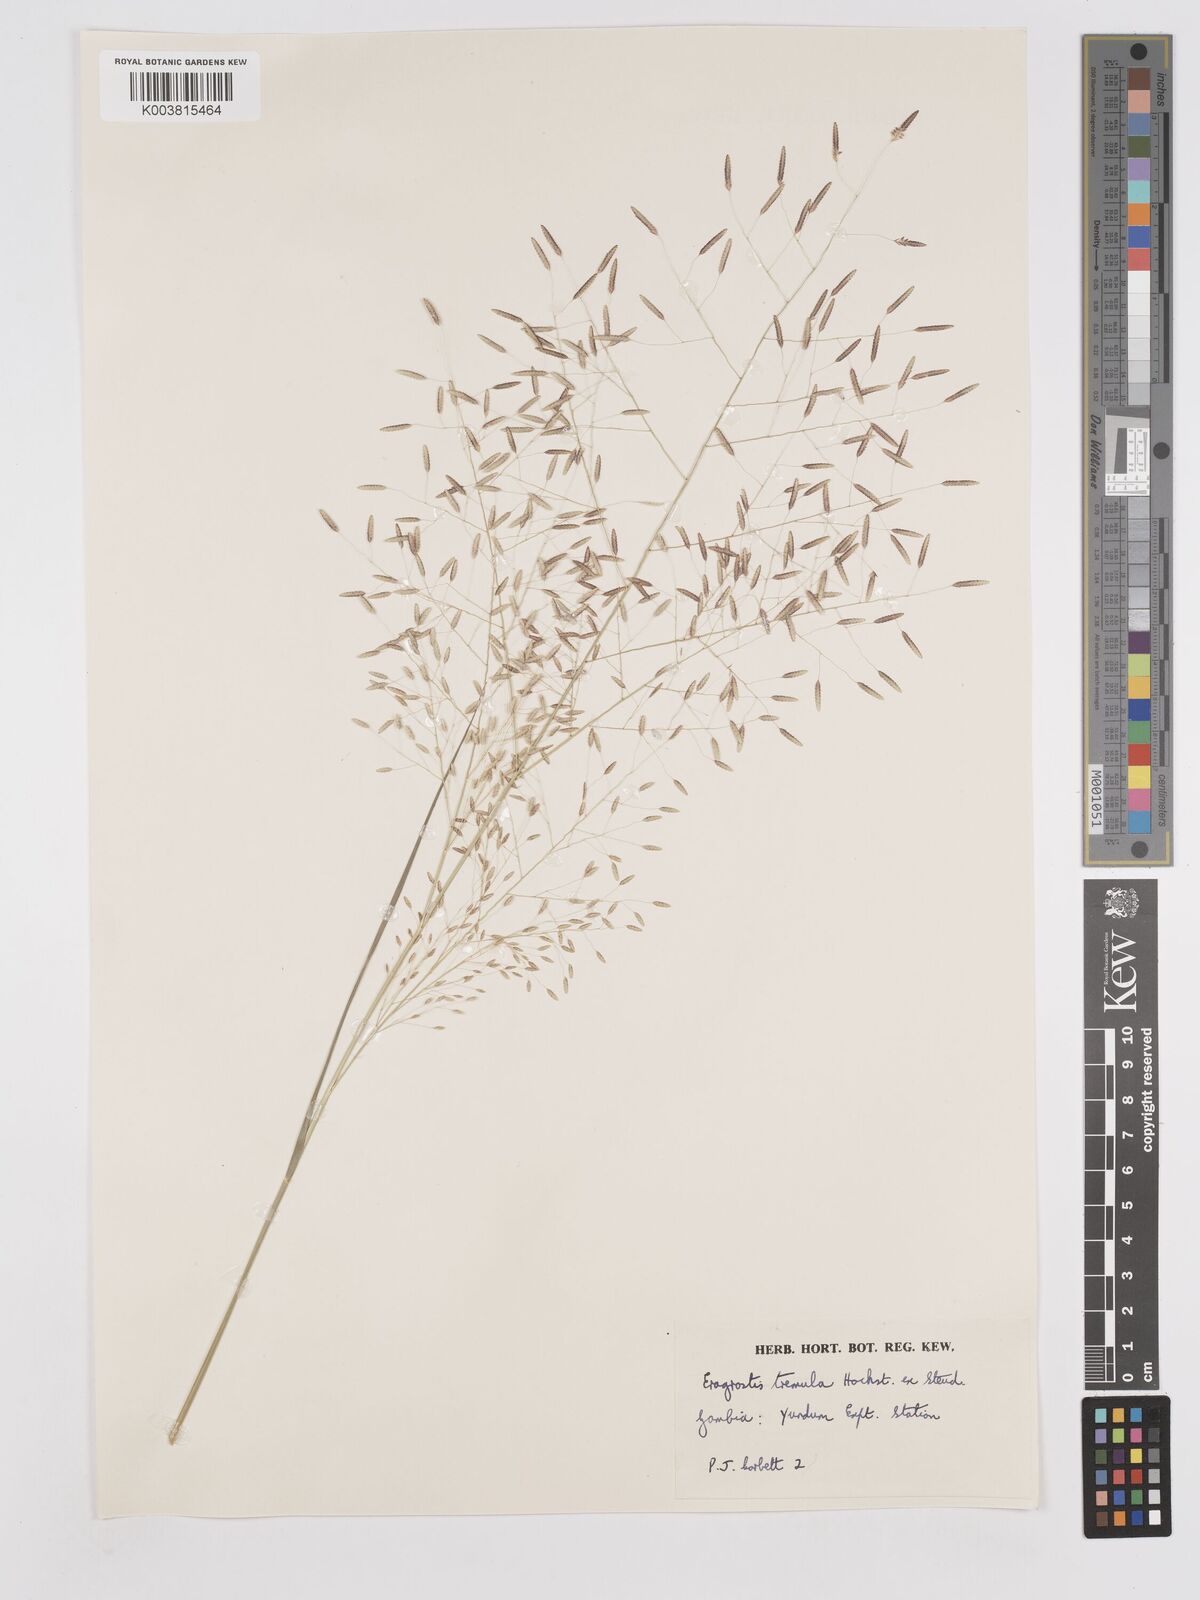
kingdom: Plantae
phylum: Tracheophyta
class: Liliopsida
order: Poales
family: Poaceae
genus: Eragrostis
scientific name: Eragrostis tremula
